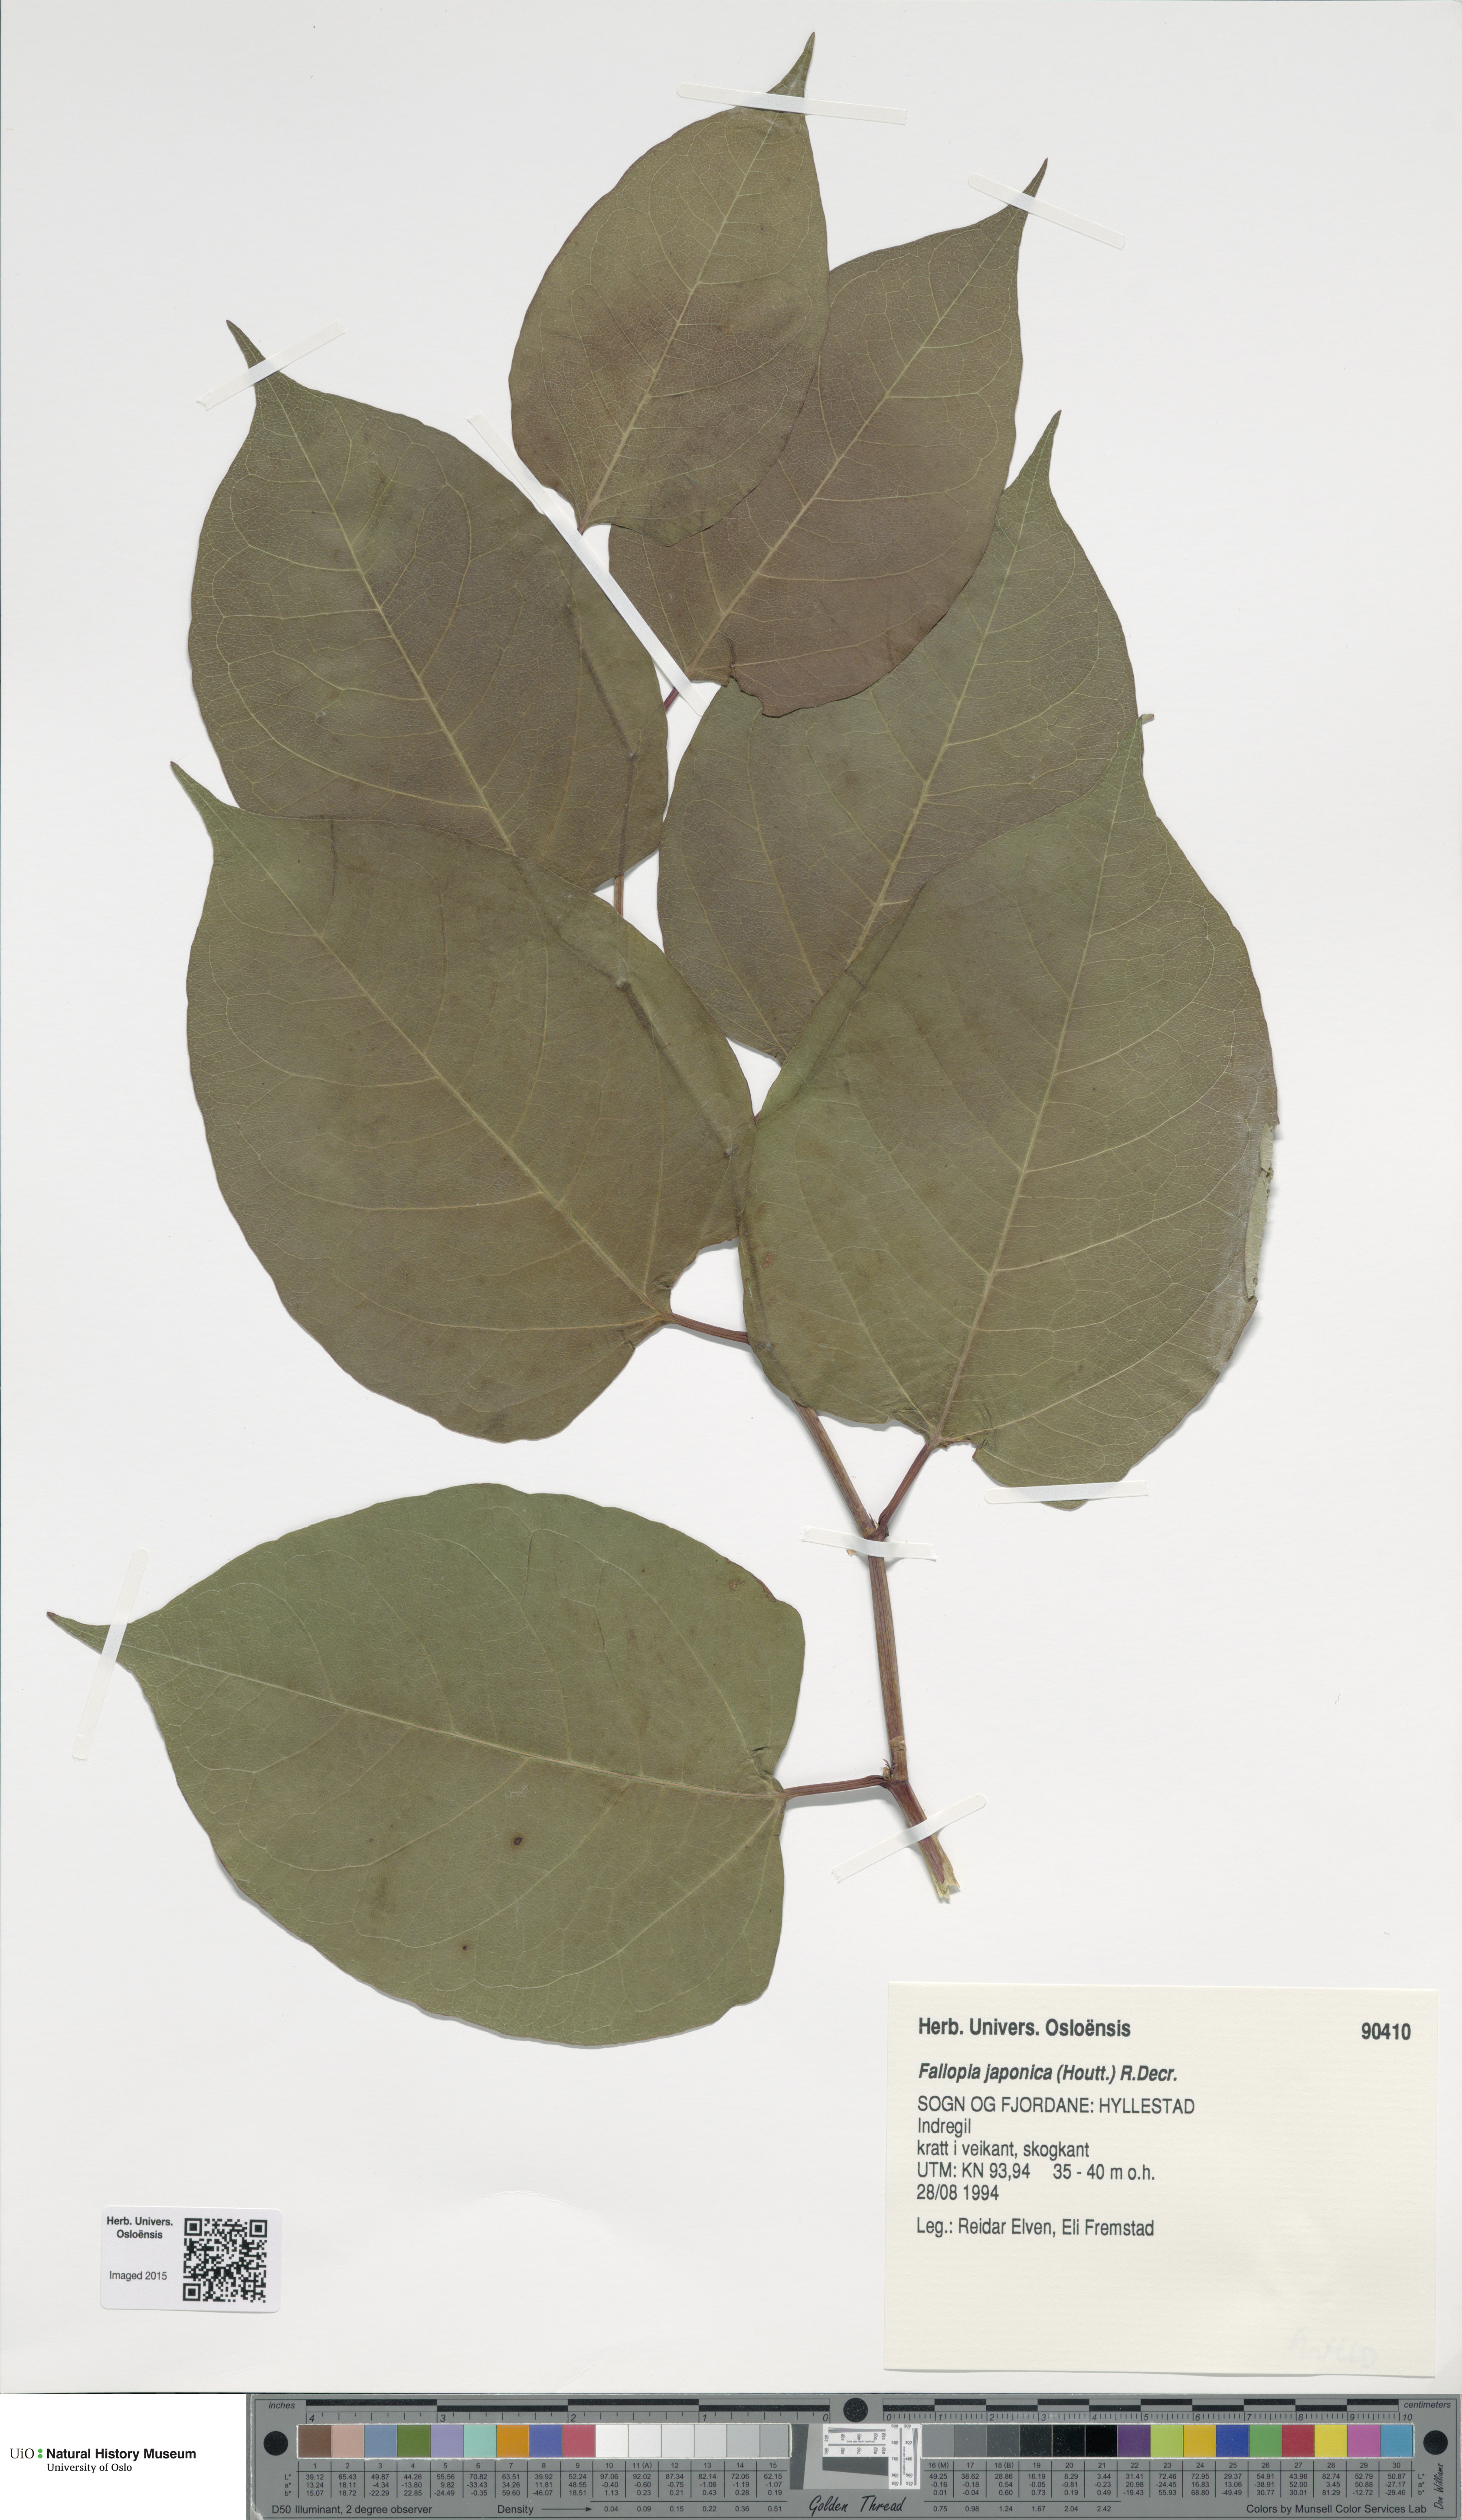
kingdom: Plantae
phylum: Tracheophyta
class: Magnoliopsida
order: Caryophyllales
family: Polygonaceae
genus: Reynoutria
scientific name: Reynoutria japonica
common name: Japanese knotweed
